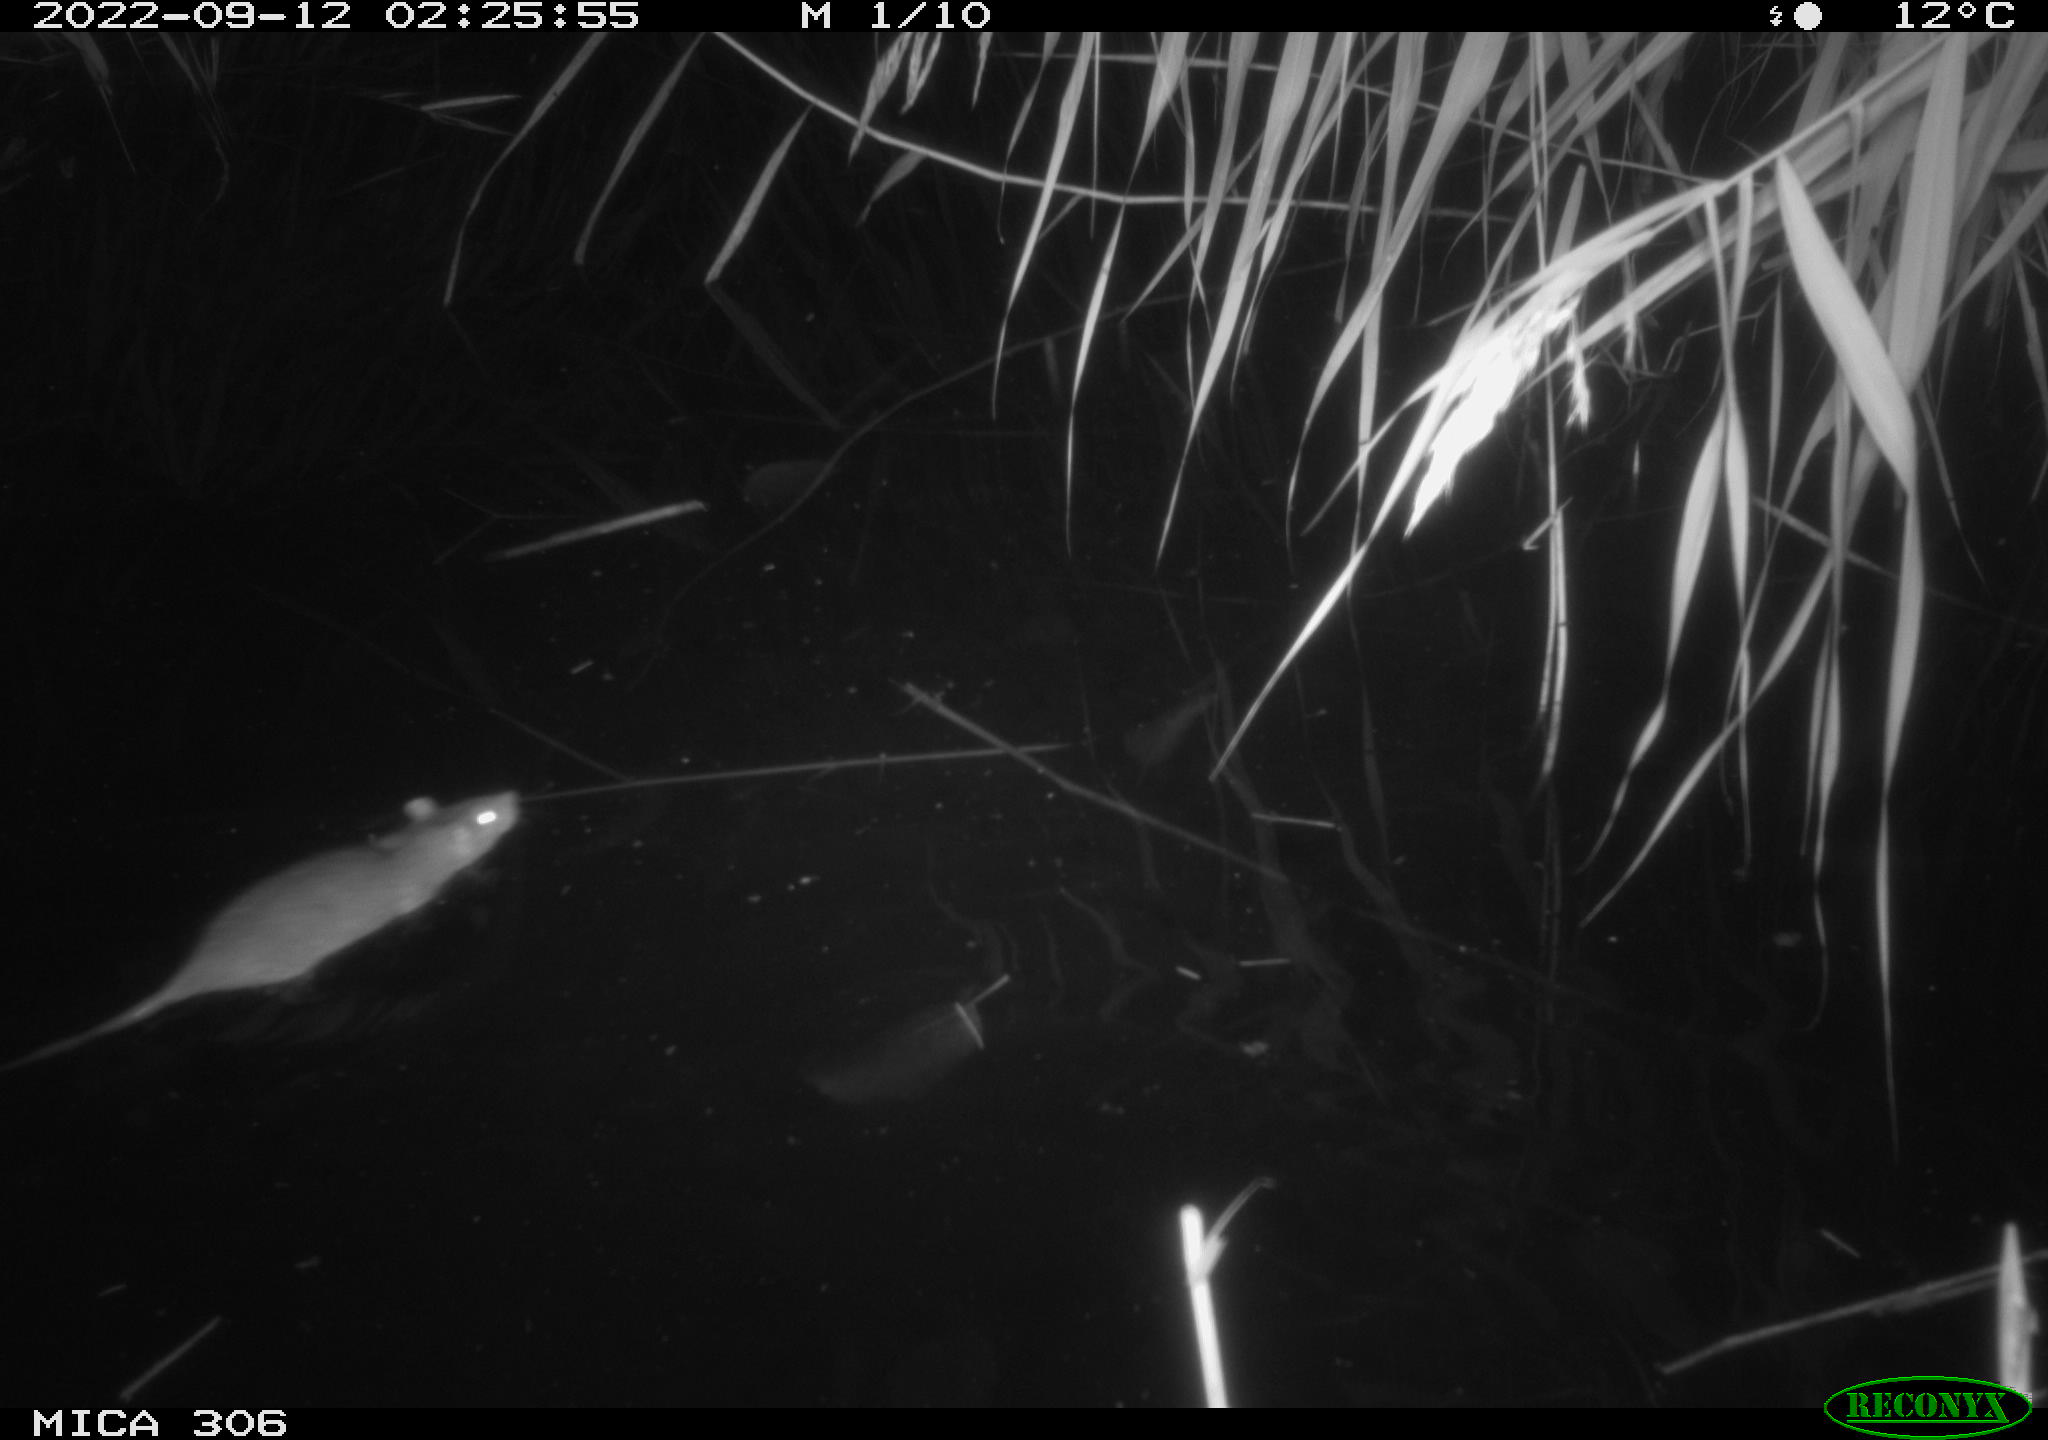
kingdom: Animalia
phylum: Chordata
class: Mammalia
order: Rodentia
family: Muridae
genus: Rattus
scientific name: Rattus norvegicus
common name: Brown rat
